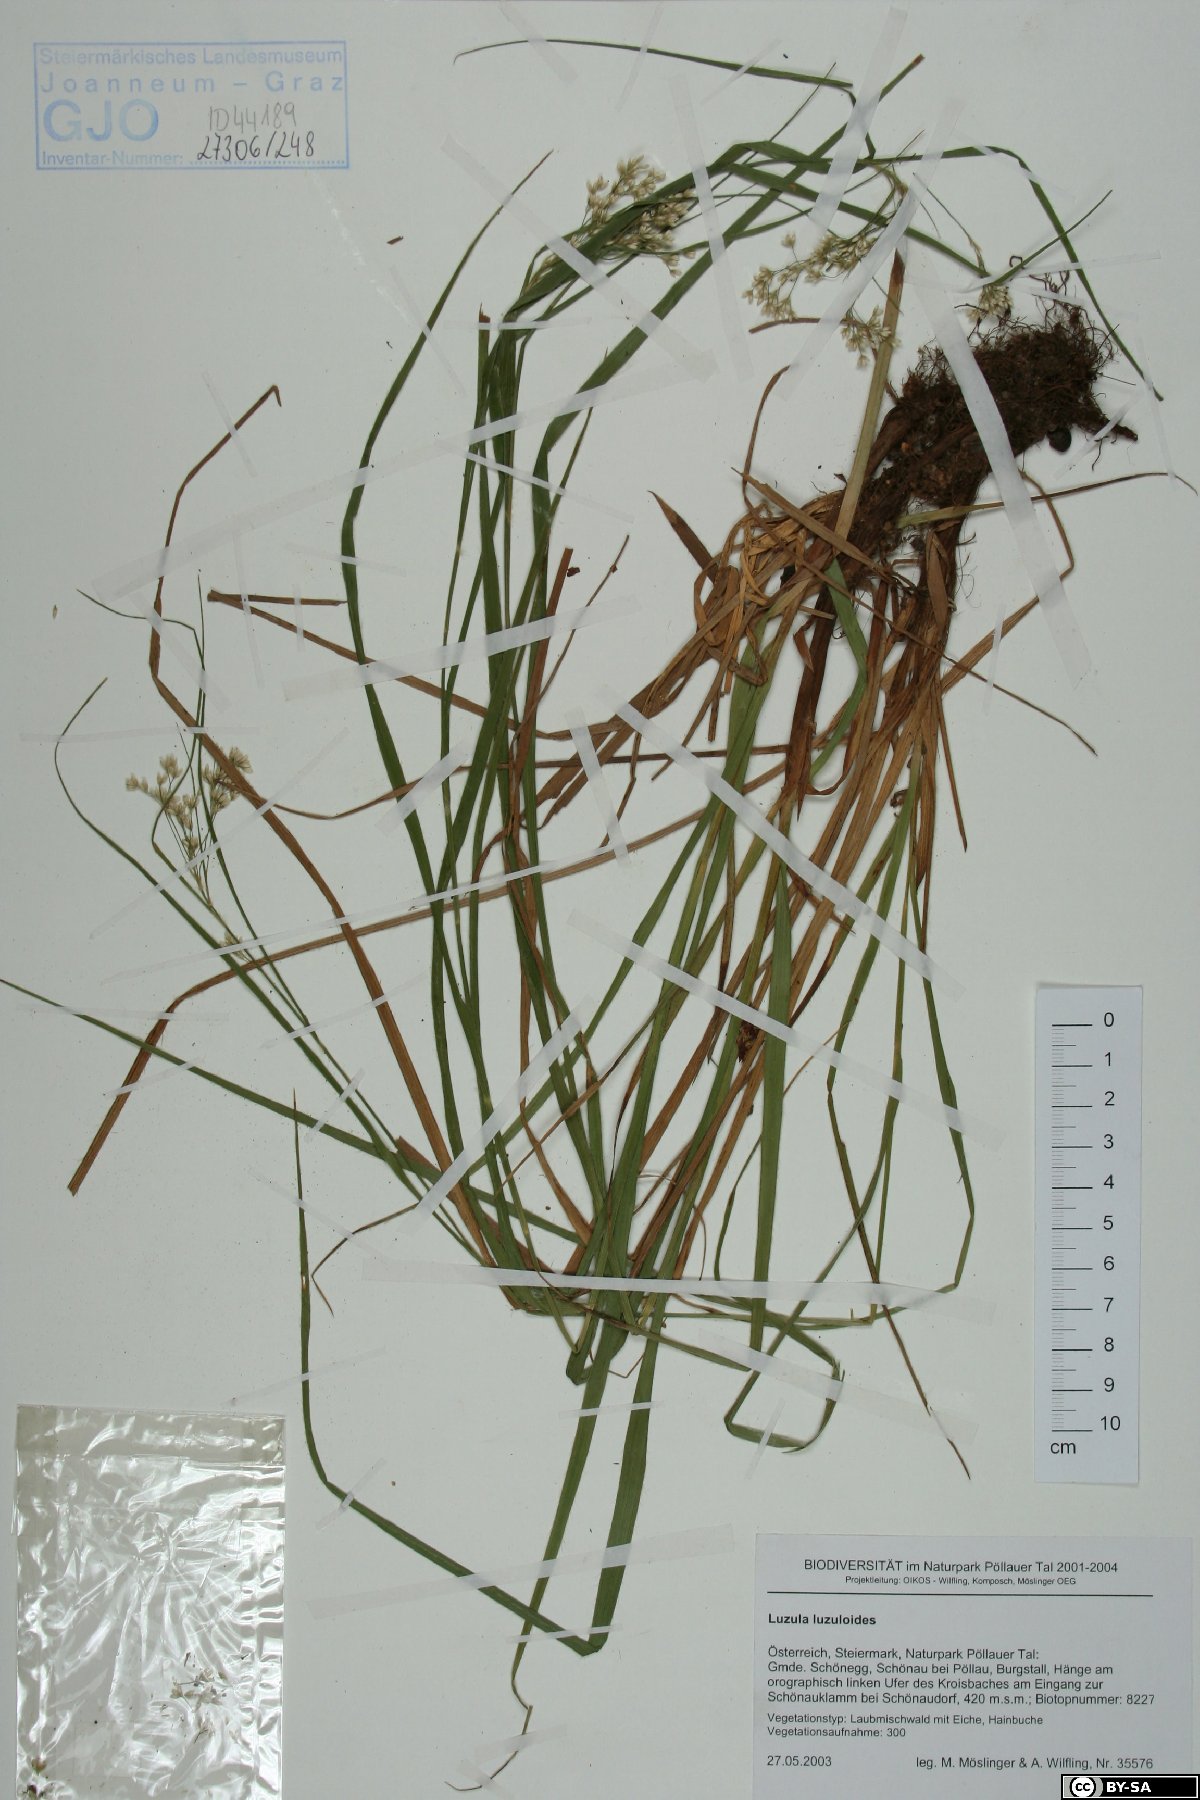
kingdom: Plantae
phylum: Tracheophyta
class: Liliopsida
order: Poales
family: Juncaceae
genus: Luzula
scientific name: Luzula luzuloides
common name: White wood-rush
